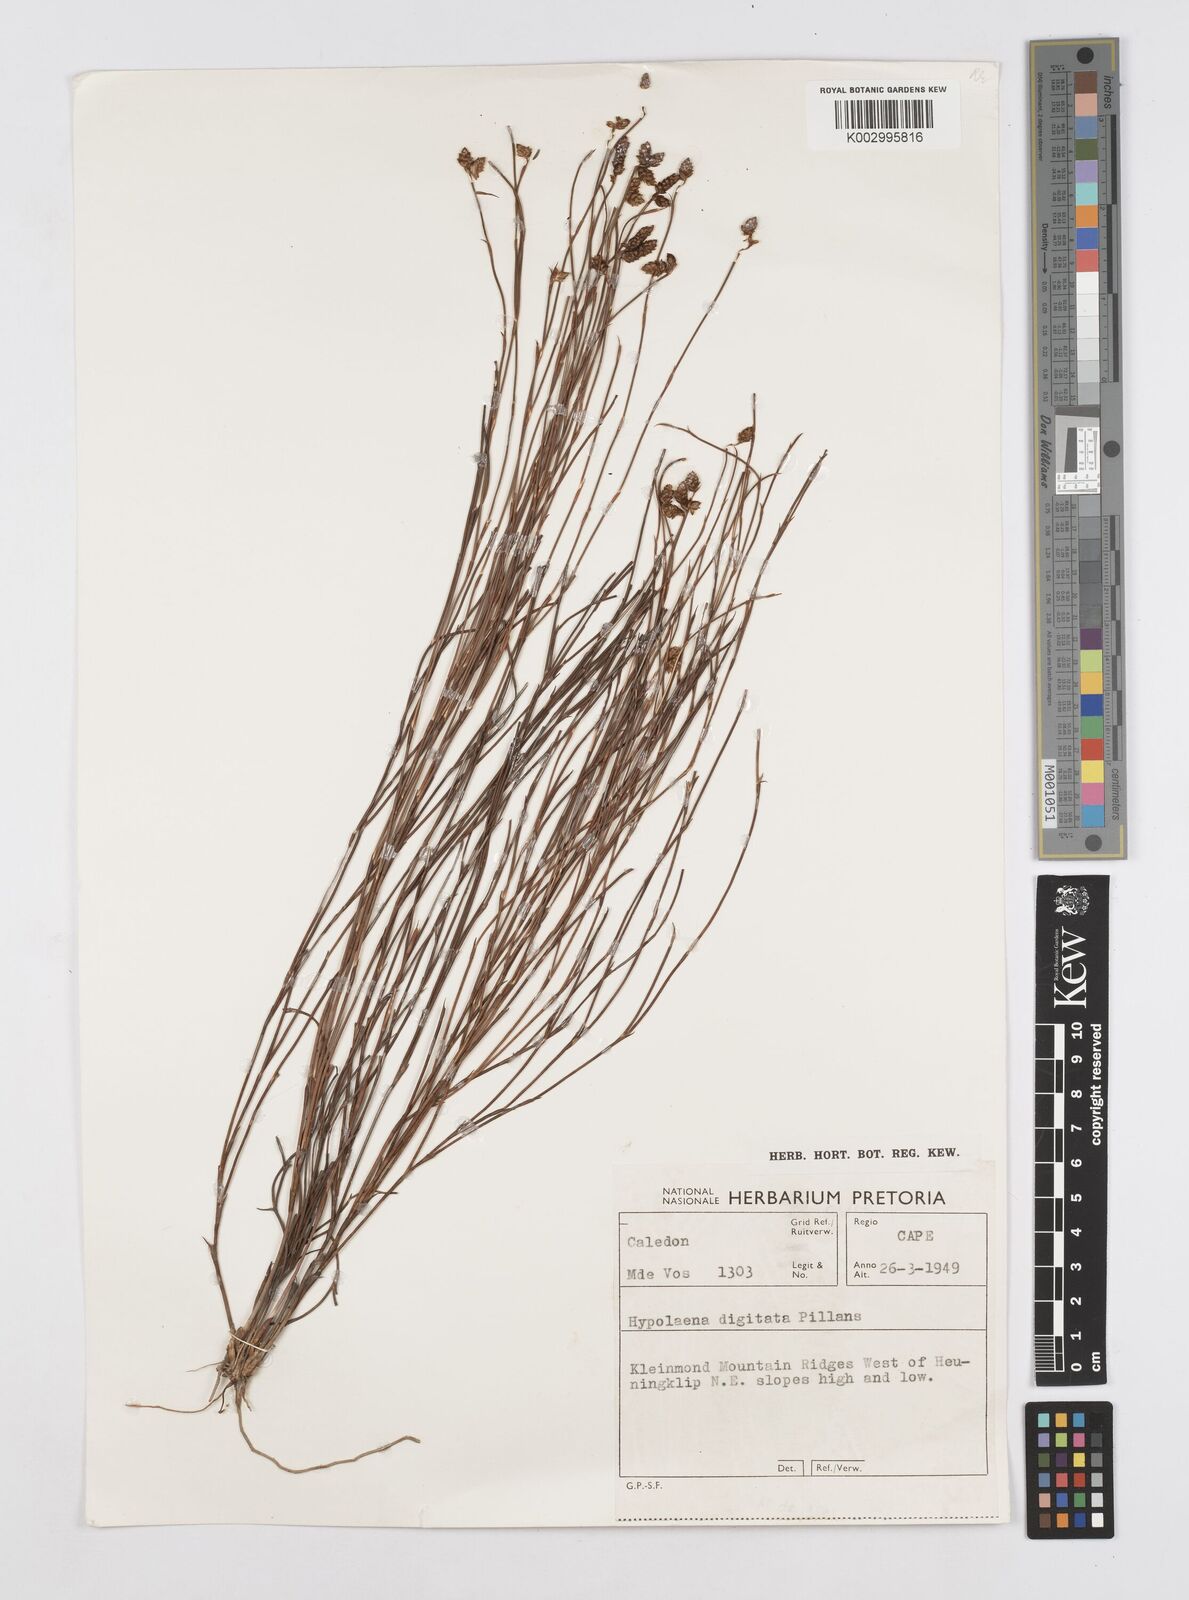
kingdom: Plantae
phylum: Tracheophyta
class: Liliopsida
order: Poales
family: Restionaceae
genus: Mastersiella
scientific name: Mastersiella digitata
